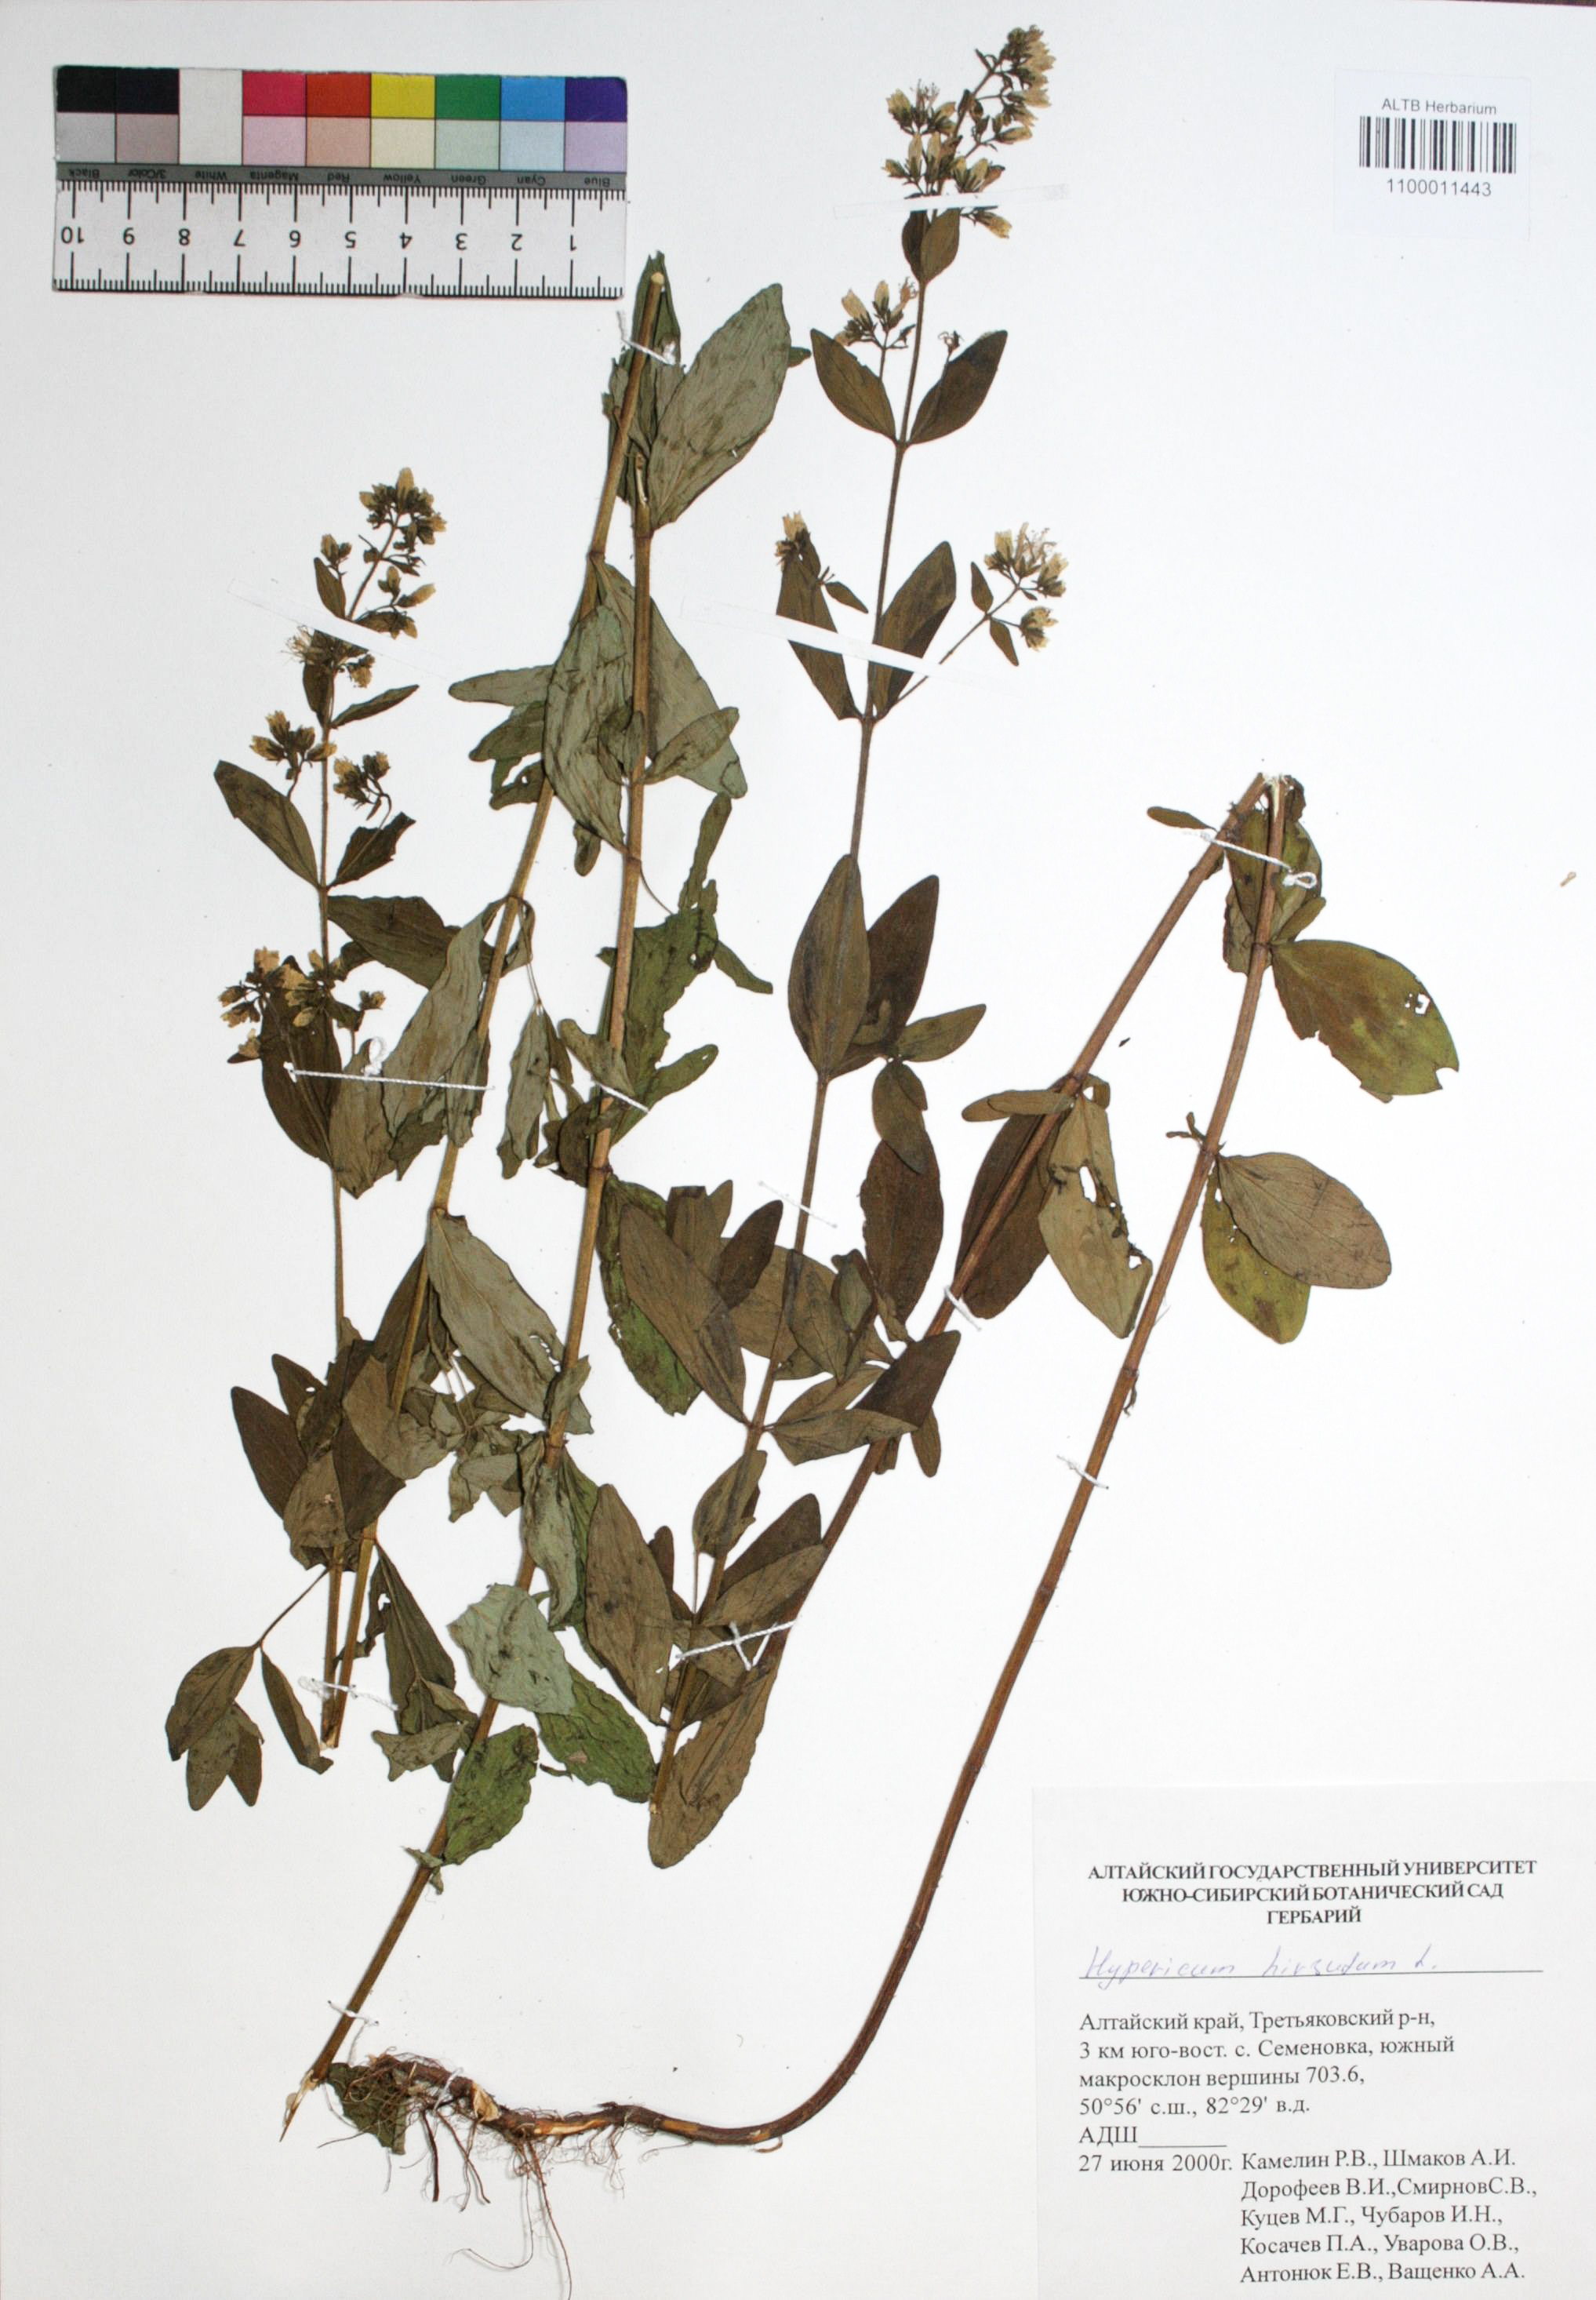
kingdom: Plantae
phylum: Tracheophyta
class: Magnoliopsida
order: Malpighiales
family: Hypericaceae
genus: Hypericum
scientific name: Hypericum hirsutum
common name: Hairy st. john's-wort
